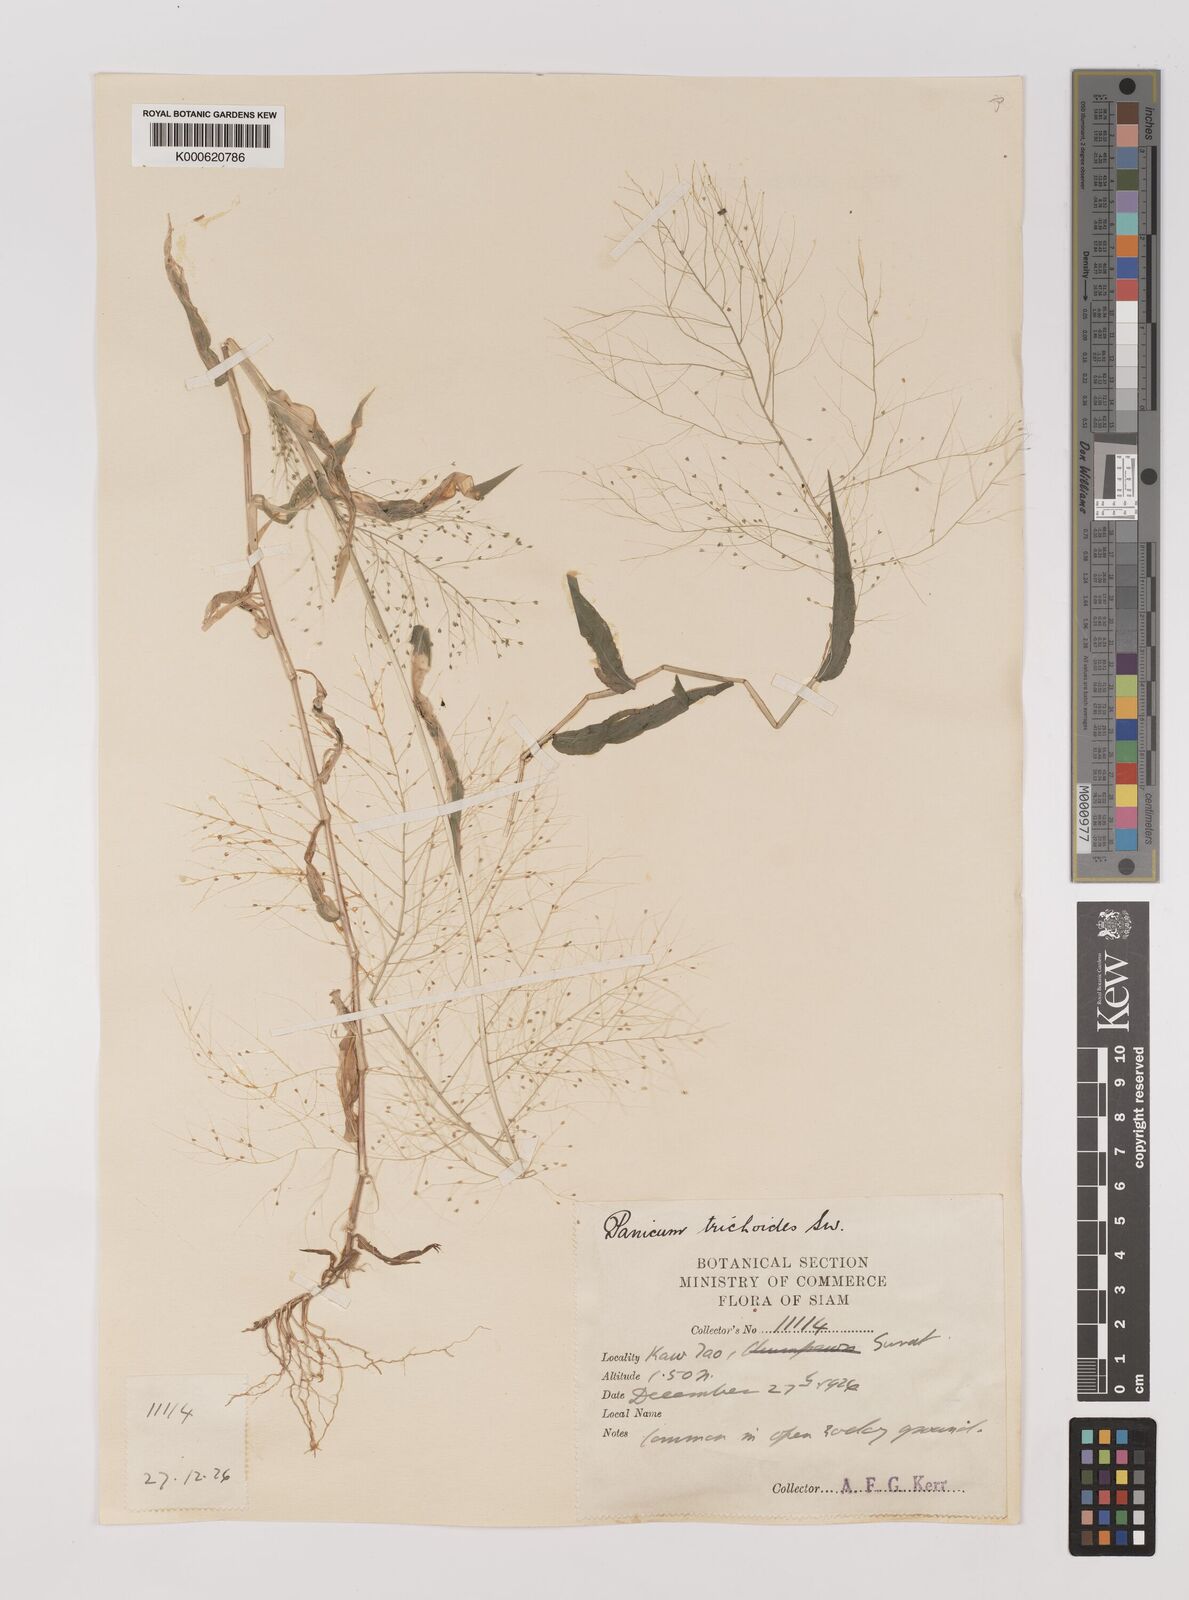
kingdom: Plantae
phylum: Tracheophyta
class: Liliopsida
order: Poales
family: Poaceae
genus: Panicum
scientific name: Panicum trichoides
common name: Tickle grass
